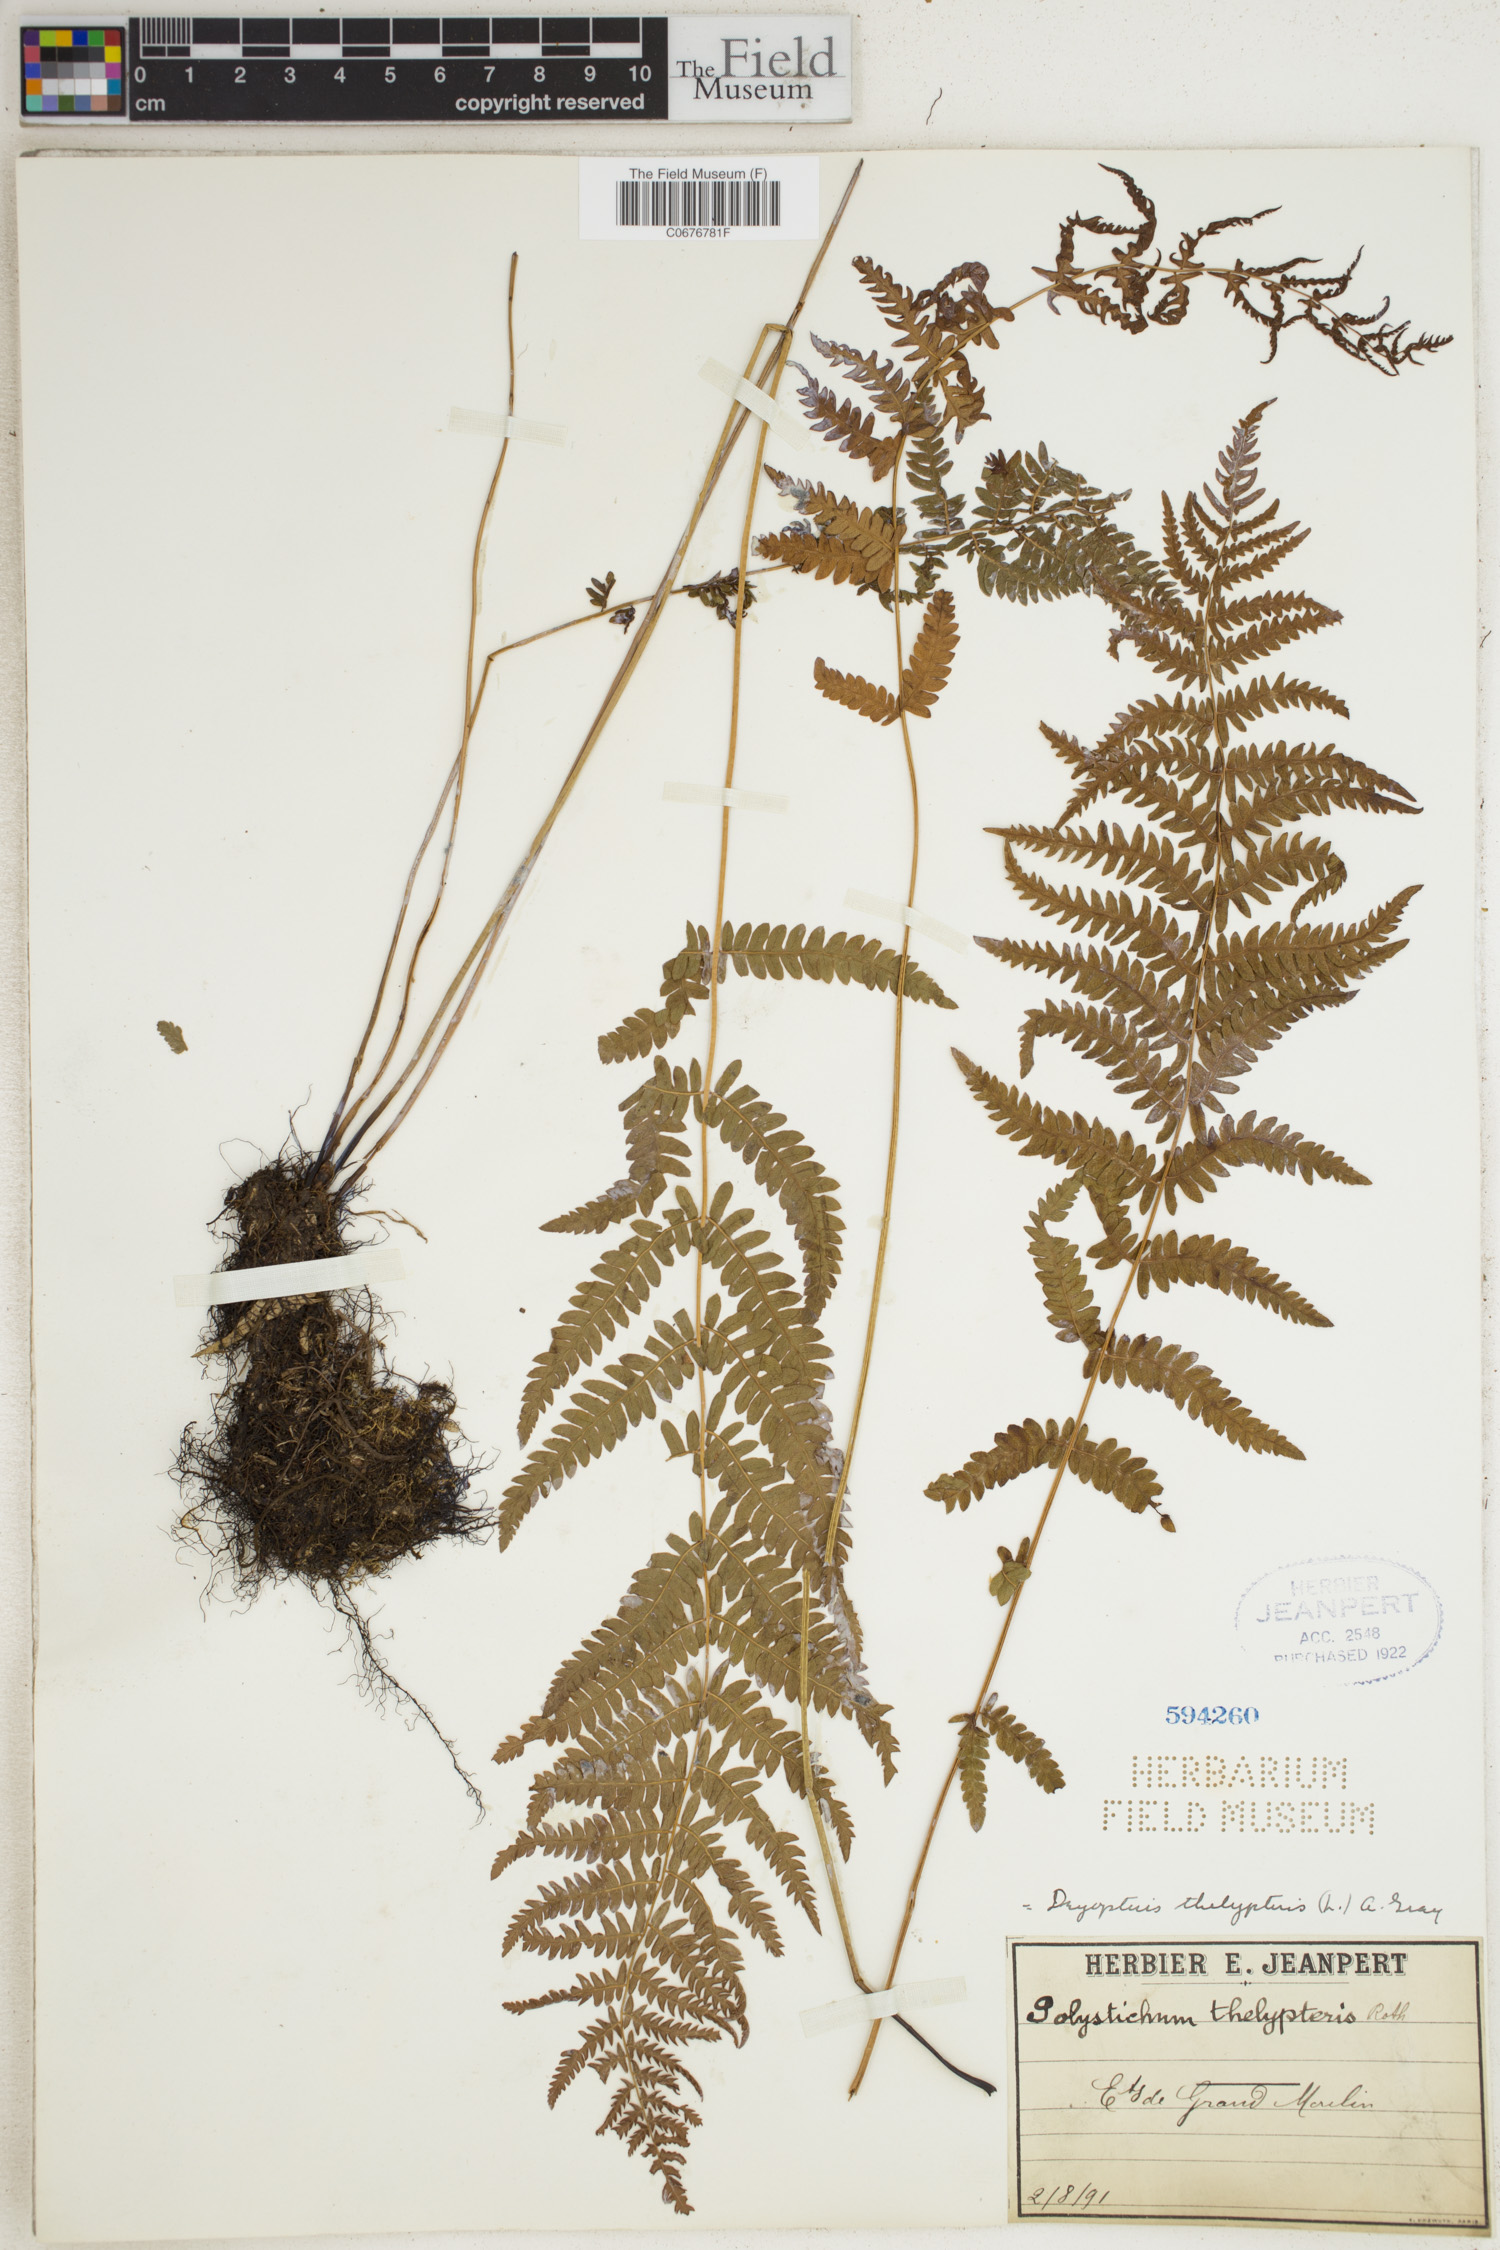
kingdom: Plantae
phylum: Tracheophyta
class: Polypodiopsida
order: Polypodiales
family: Thelypteridaceae
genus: Thelypteris
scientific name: Thelypteris palustris
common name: Marsh fern
